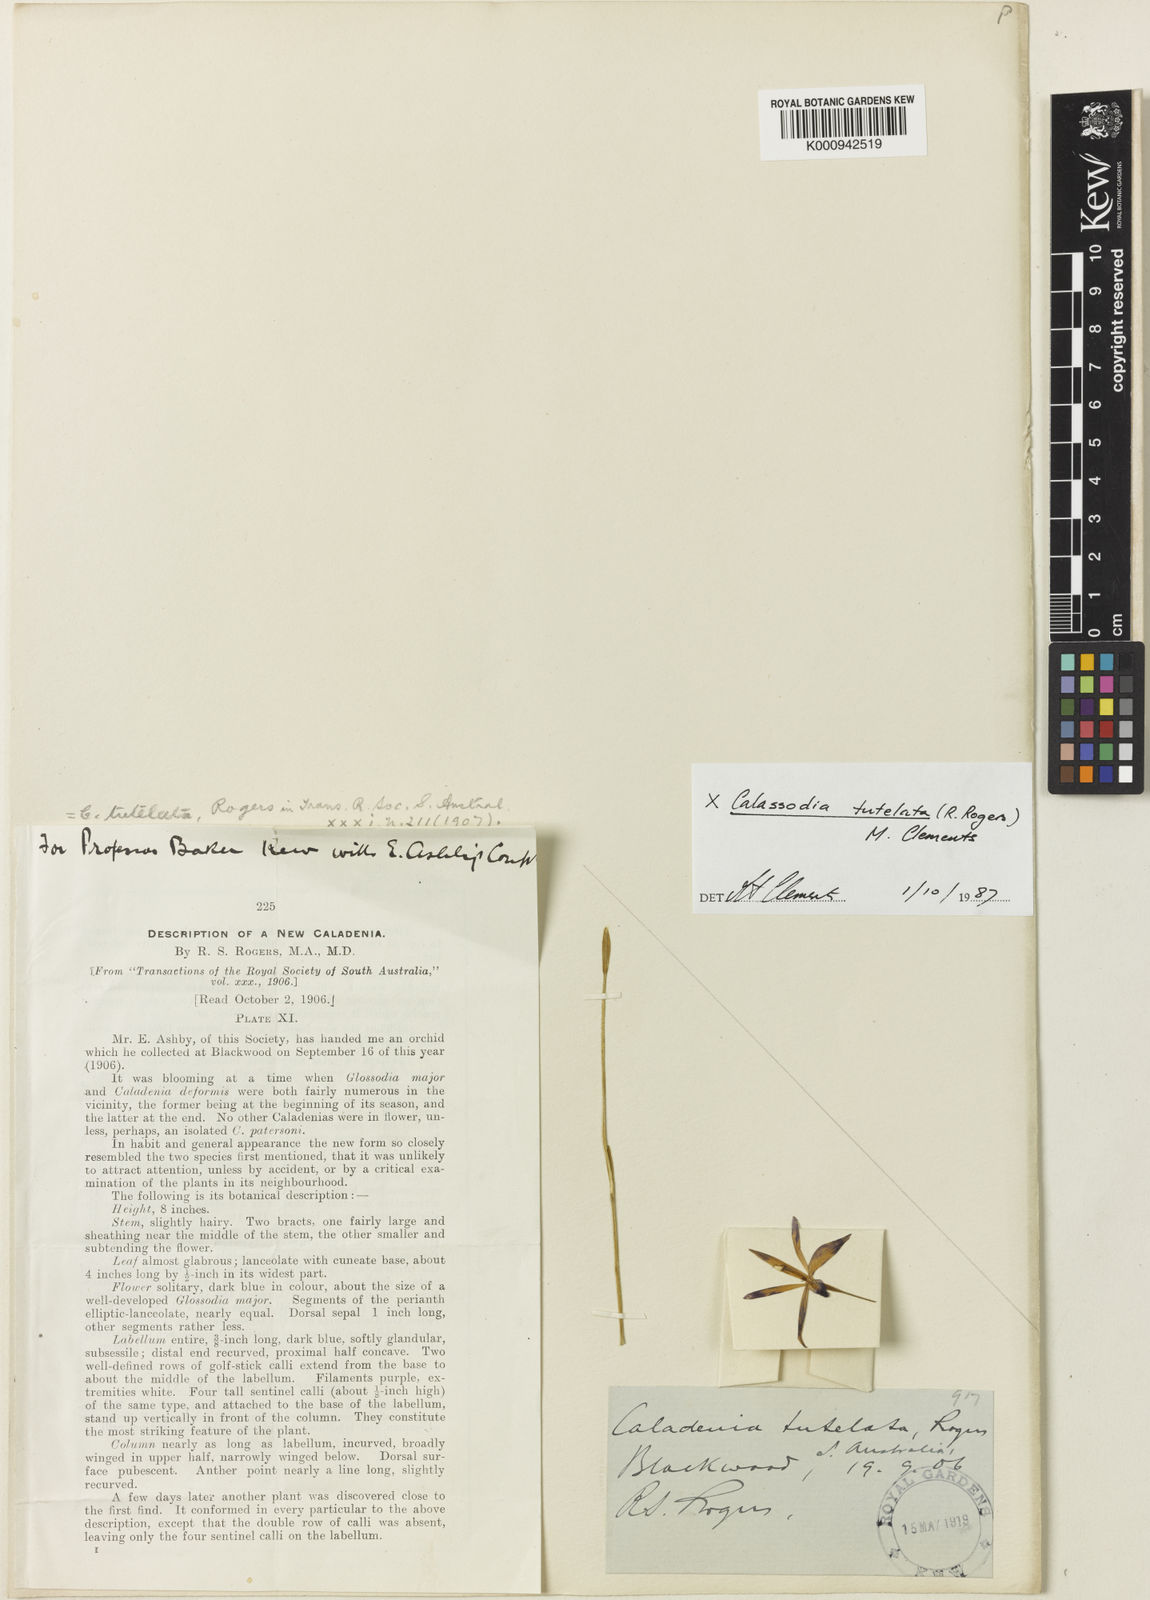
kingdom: Plantae
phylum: Tracheophyta
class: Liliopsida
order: Asparagales
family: Orchidaceae
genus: Calassodia
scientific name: Calassodia tutelata
